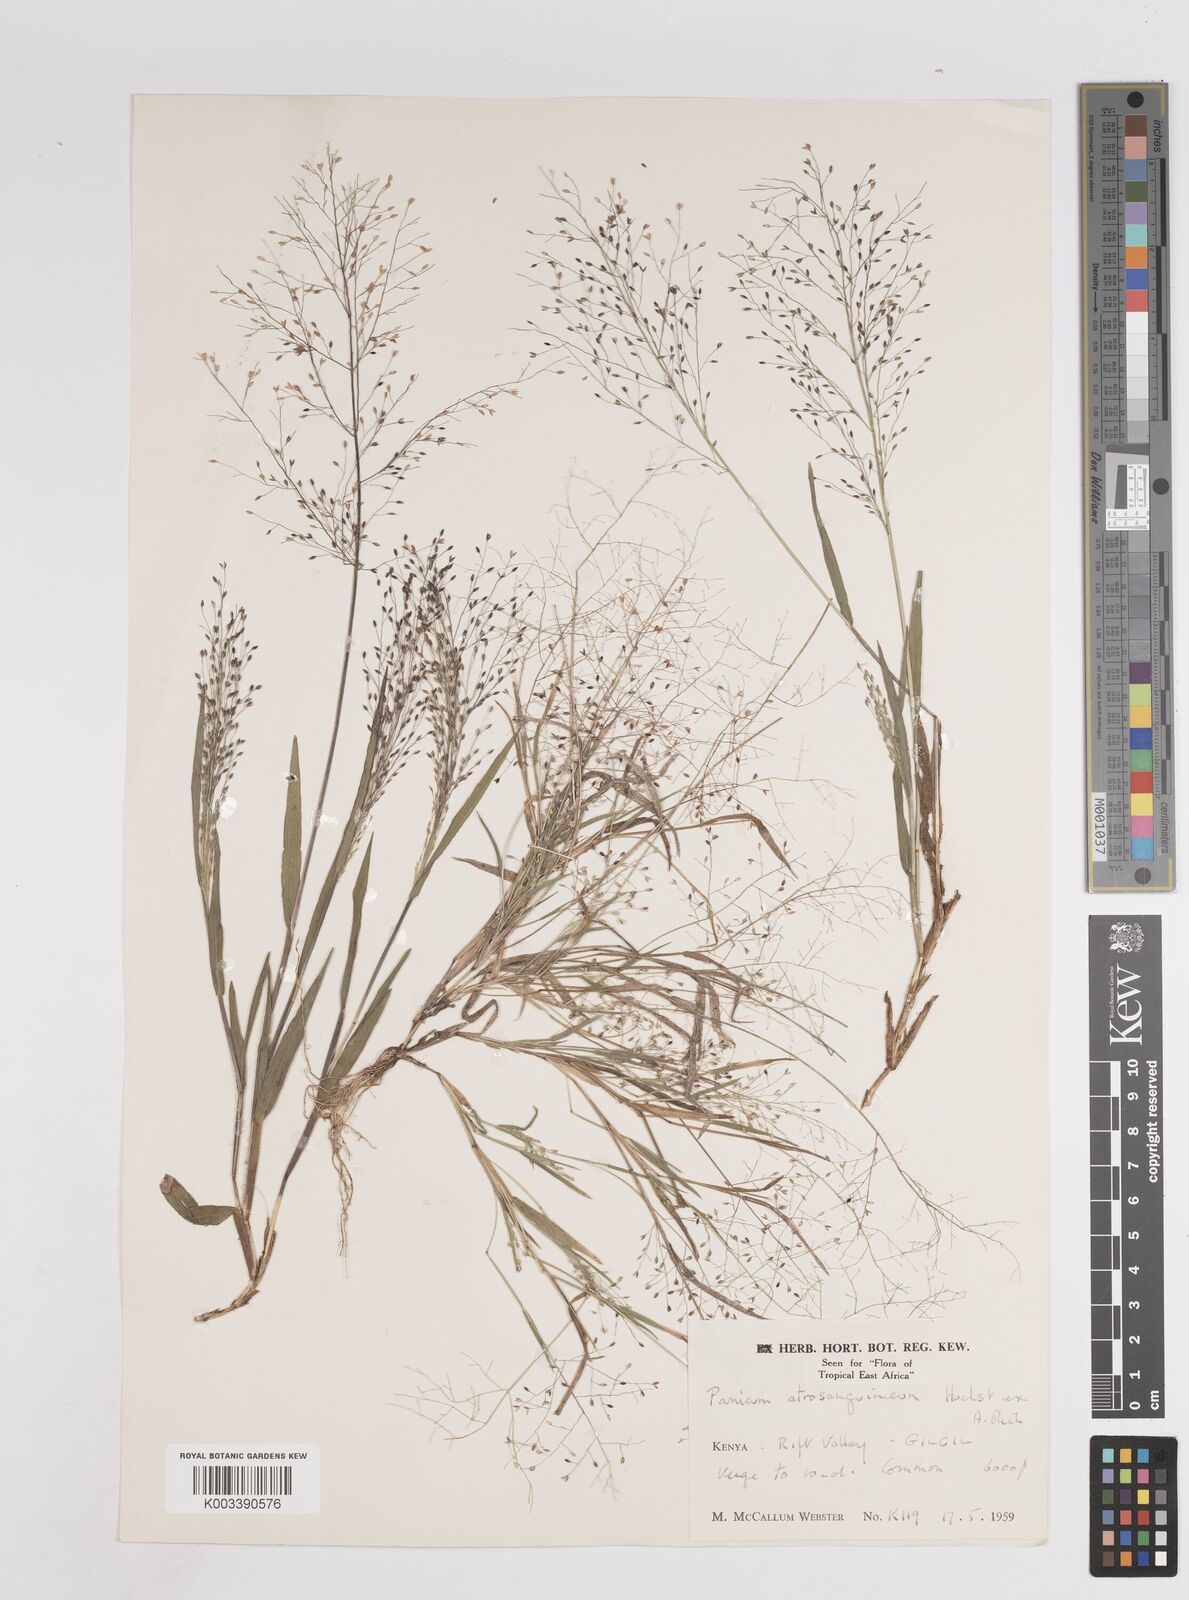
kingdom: Plantae
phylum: Tracheophyta
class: Liliopsida
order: Poales
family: Poaceae
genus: Panicum
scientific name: Panicum atrosanguineum
